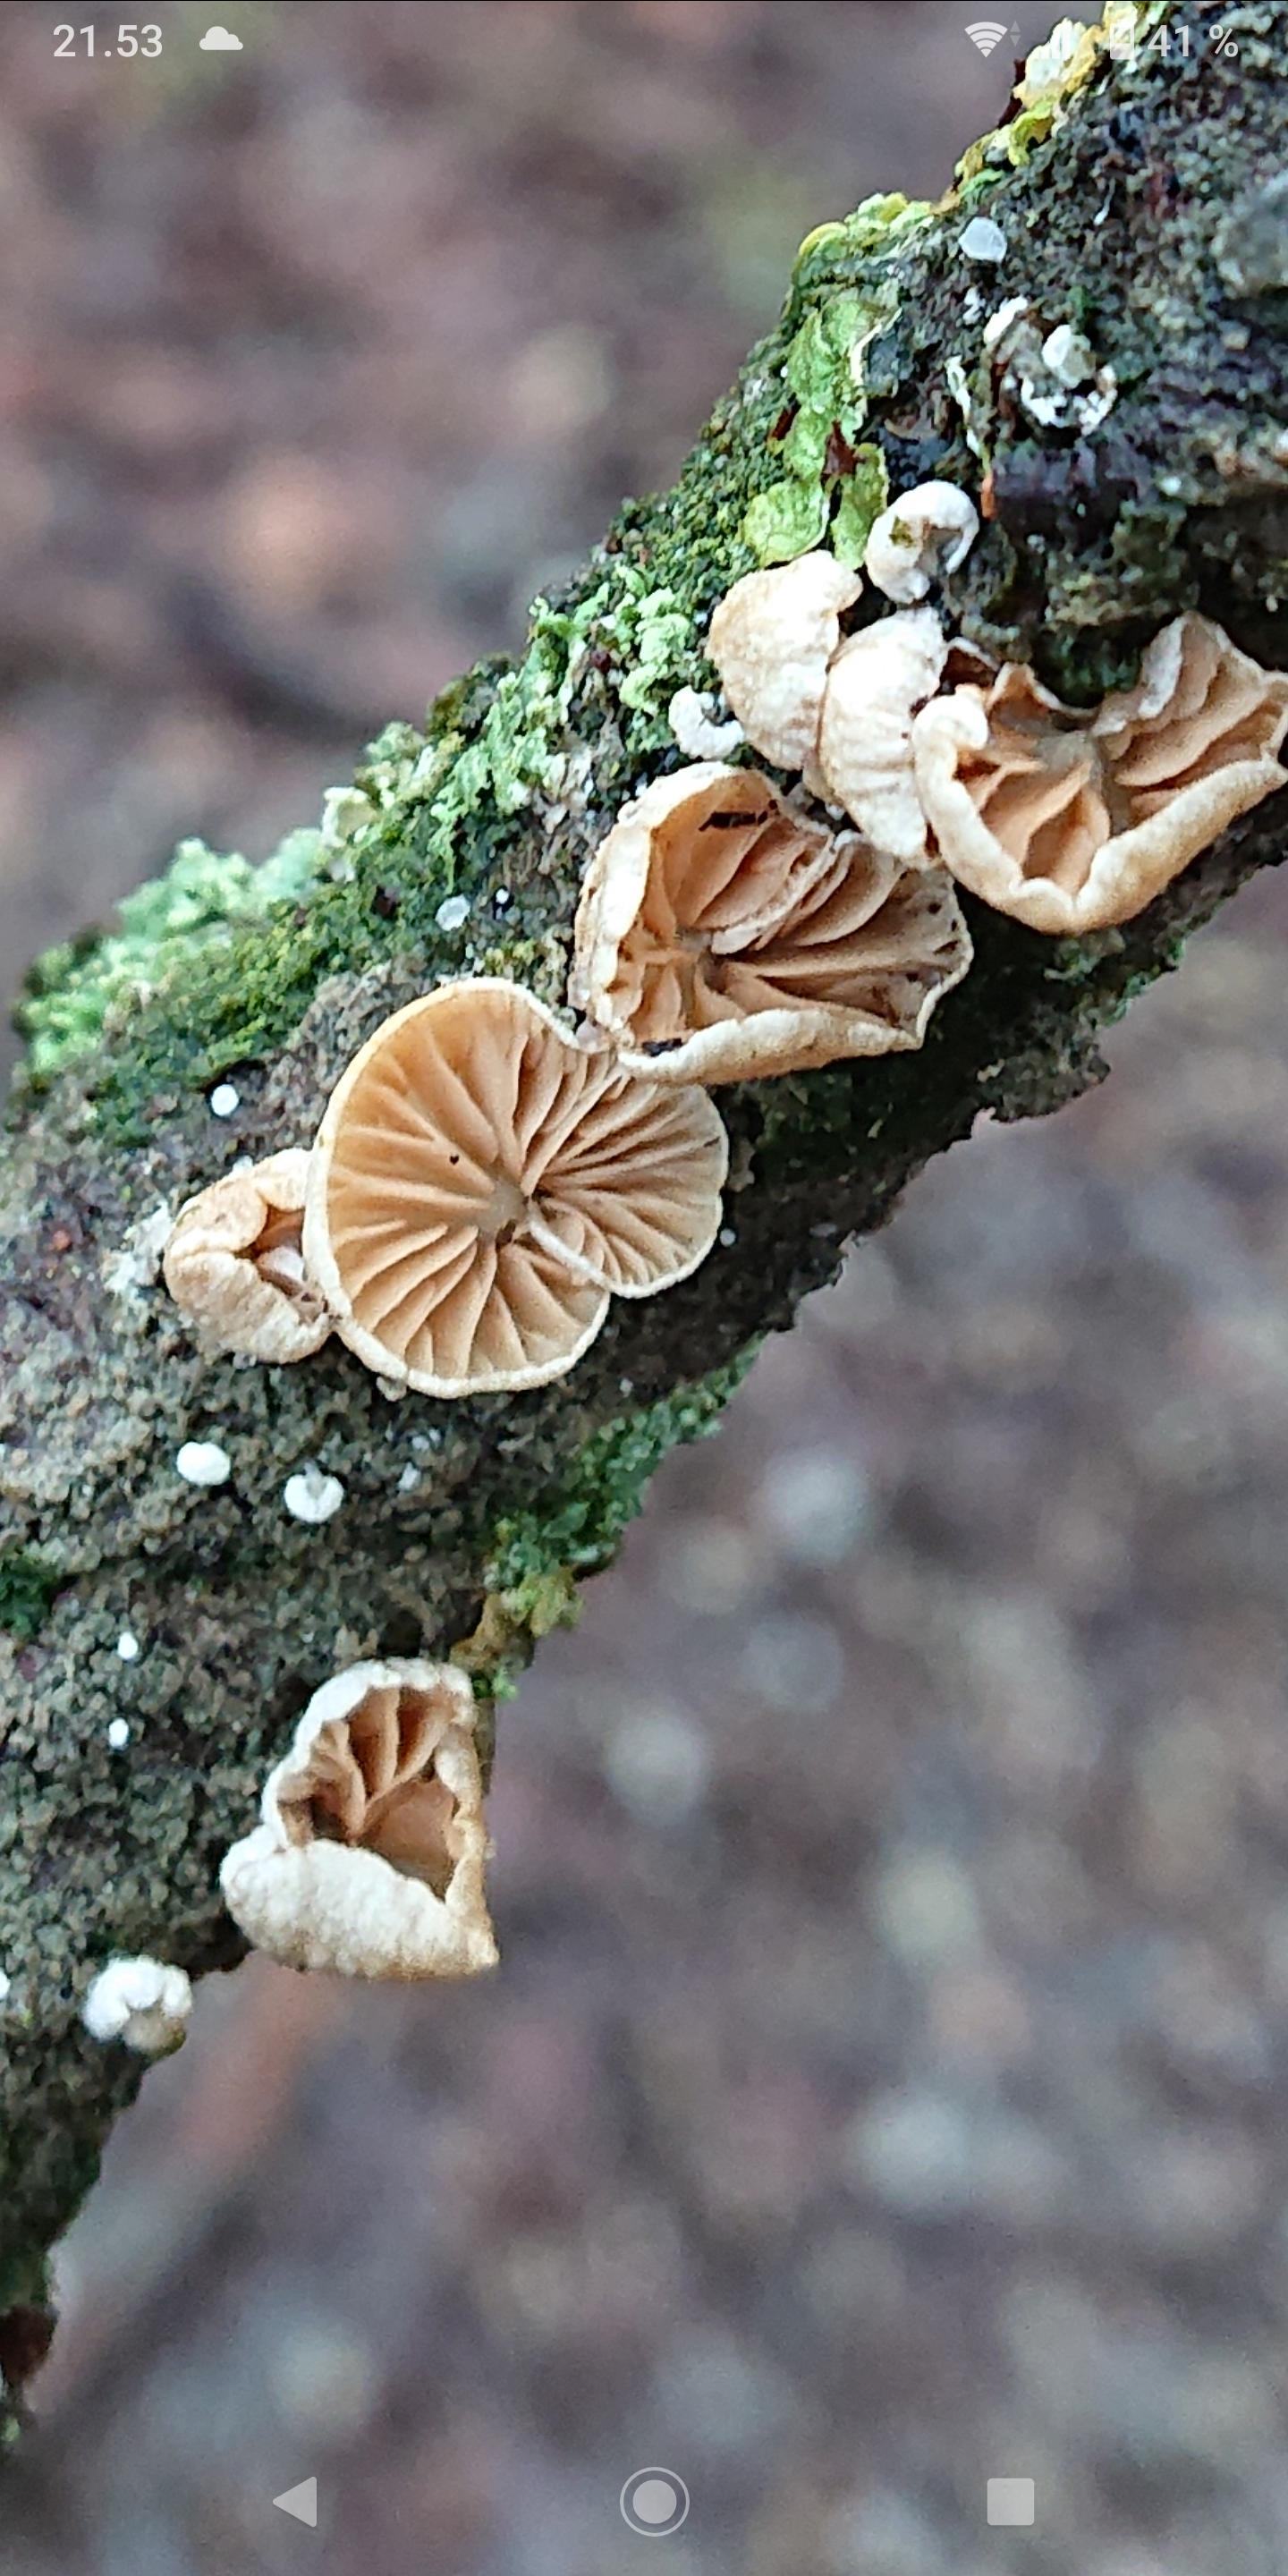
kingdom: Fungi
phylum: Basidiomycota
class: Agaricomycetes
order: Agaricales
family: Crepidotaceae
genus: Crepidotus
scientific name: Crepidotus cesatii
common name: almindelig muslingesvamp
